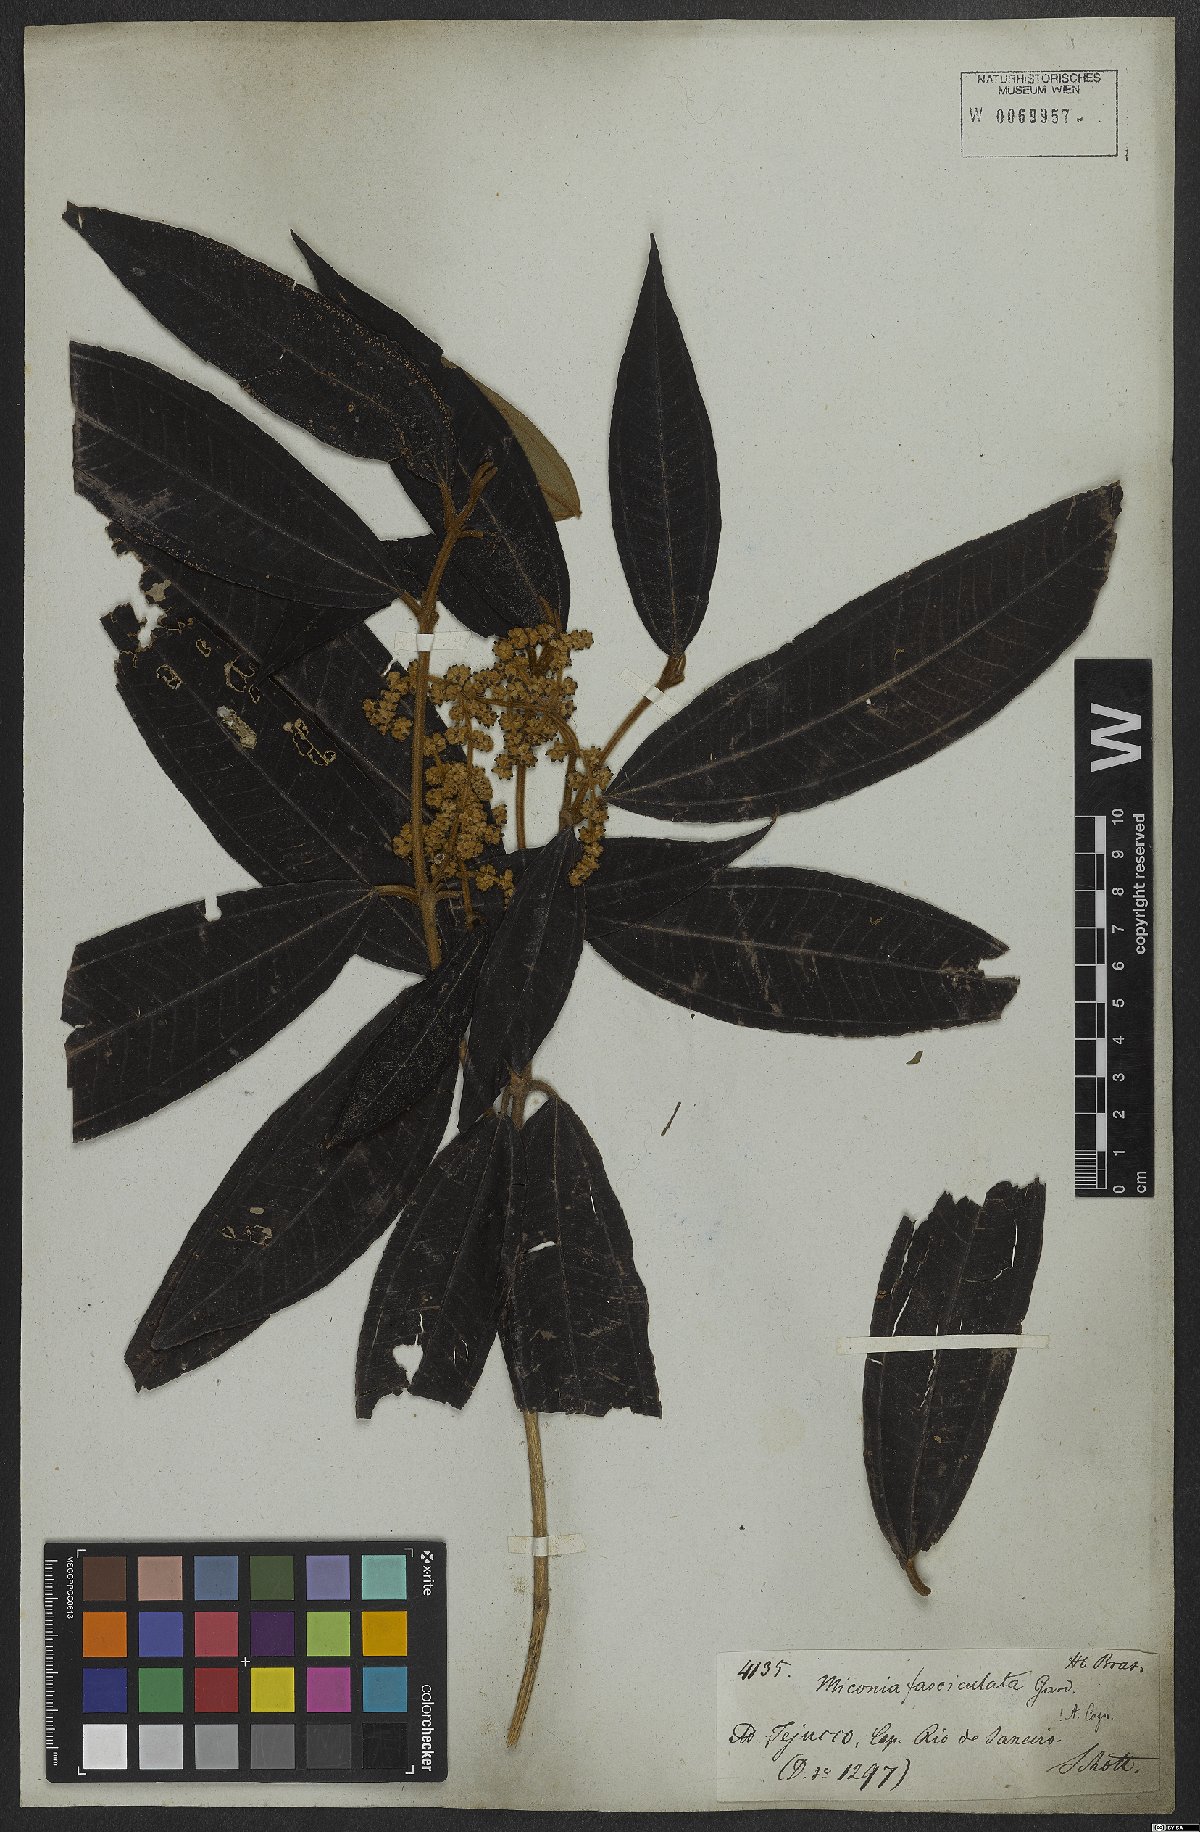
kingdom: Plantae
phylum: Tracheophyta
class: Magnoliopsida
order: Myrtales
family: Melastomataceae
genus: Miconia
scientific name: Miconia fasciculata
